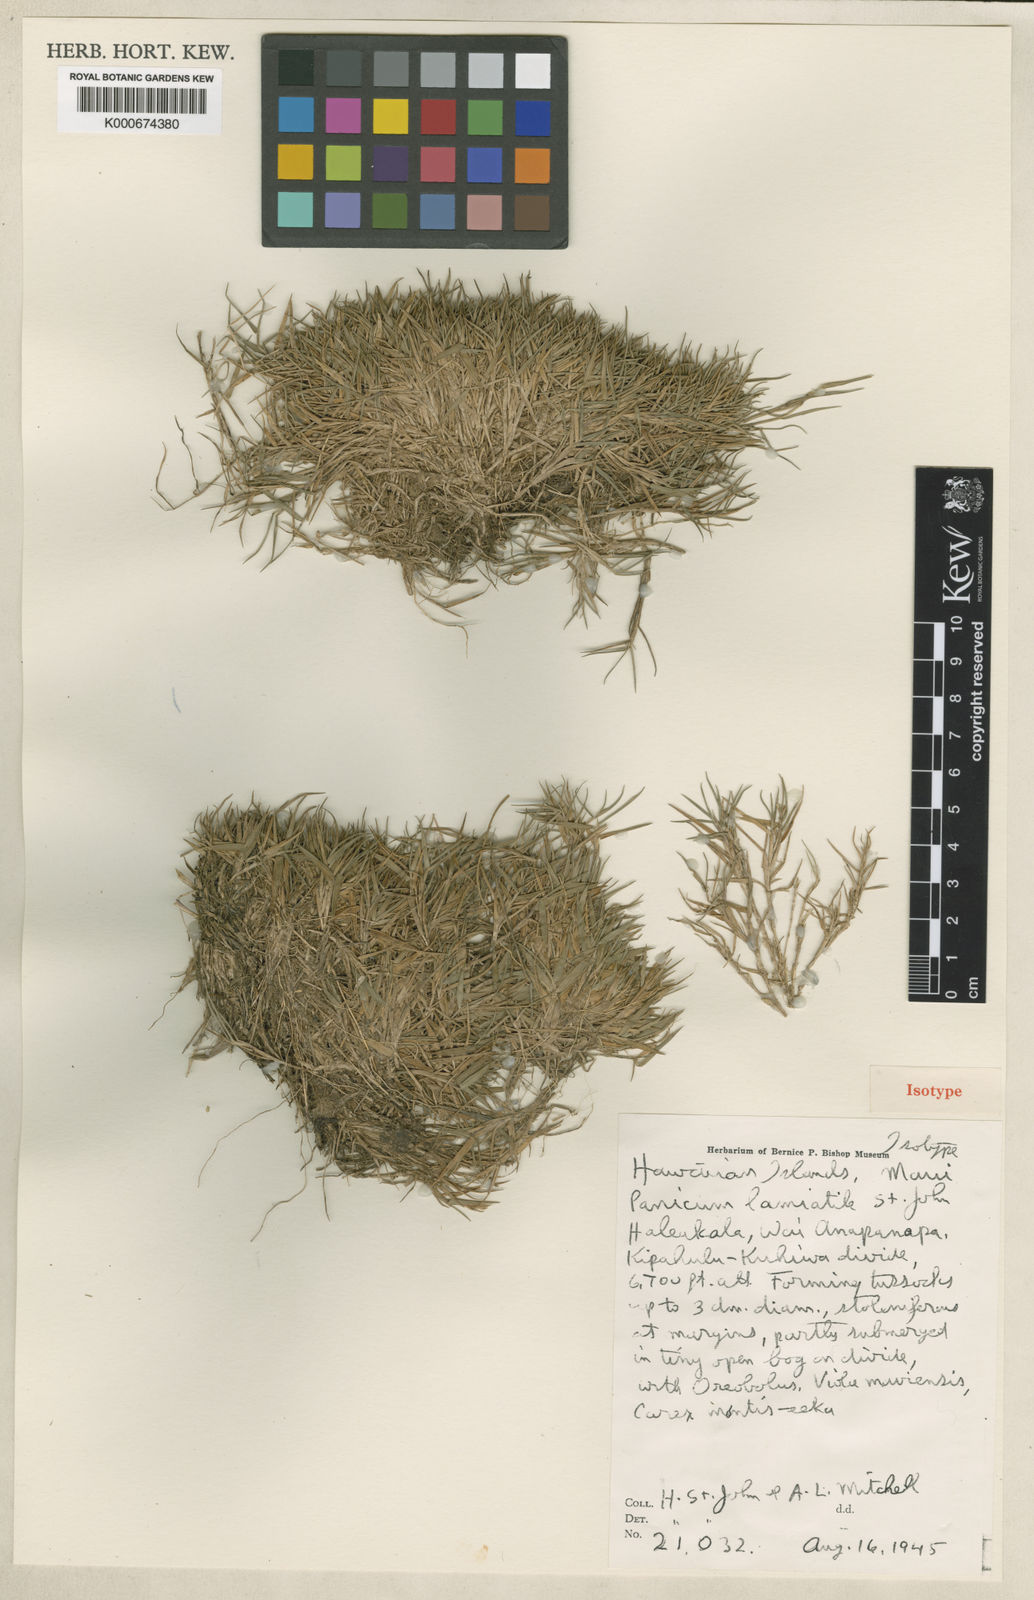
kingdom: Plantae
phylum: Tracheophyta
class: Liliopsida
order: Poales
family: Poaceae
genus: Dichanthelium
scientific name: Dichanthelium cynodon
